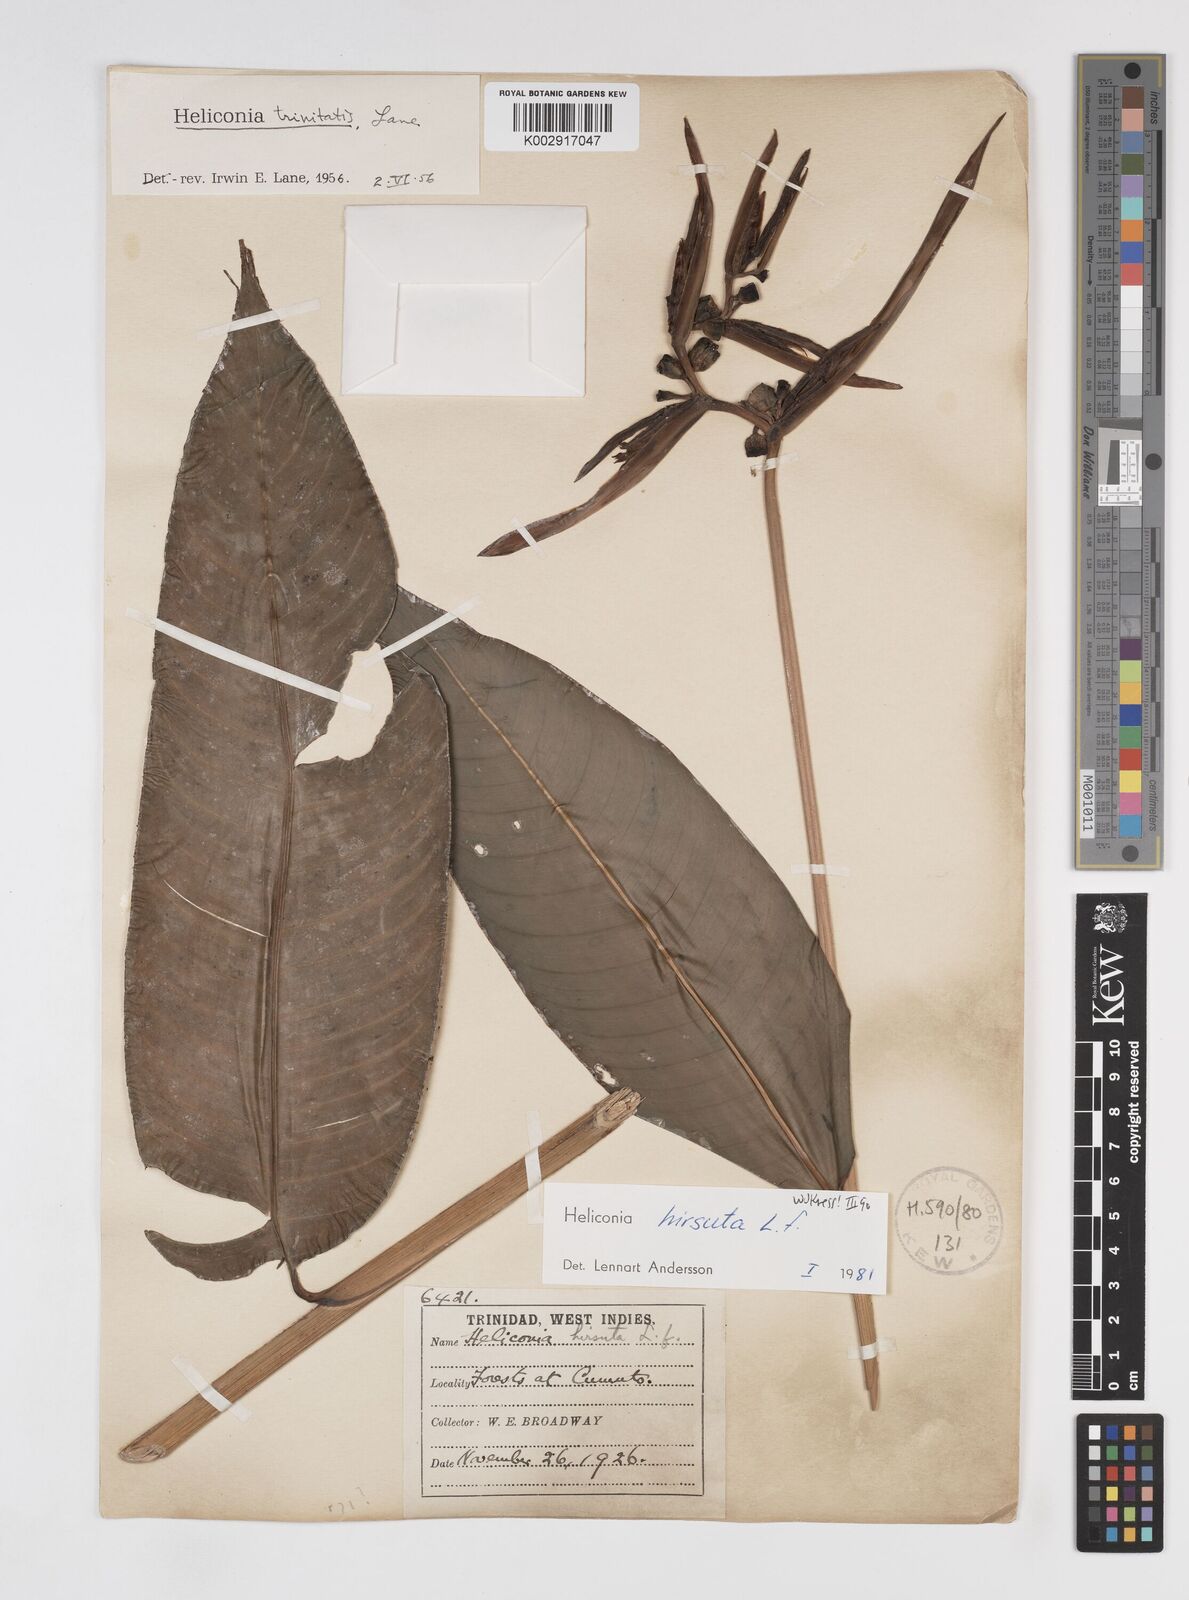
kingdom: Plantae
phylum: Tracheophyta
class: Liliopsida
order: Zingiberales
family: Heliconiaceae
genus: Heliconia
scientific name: Heliconia hirsuta
